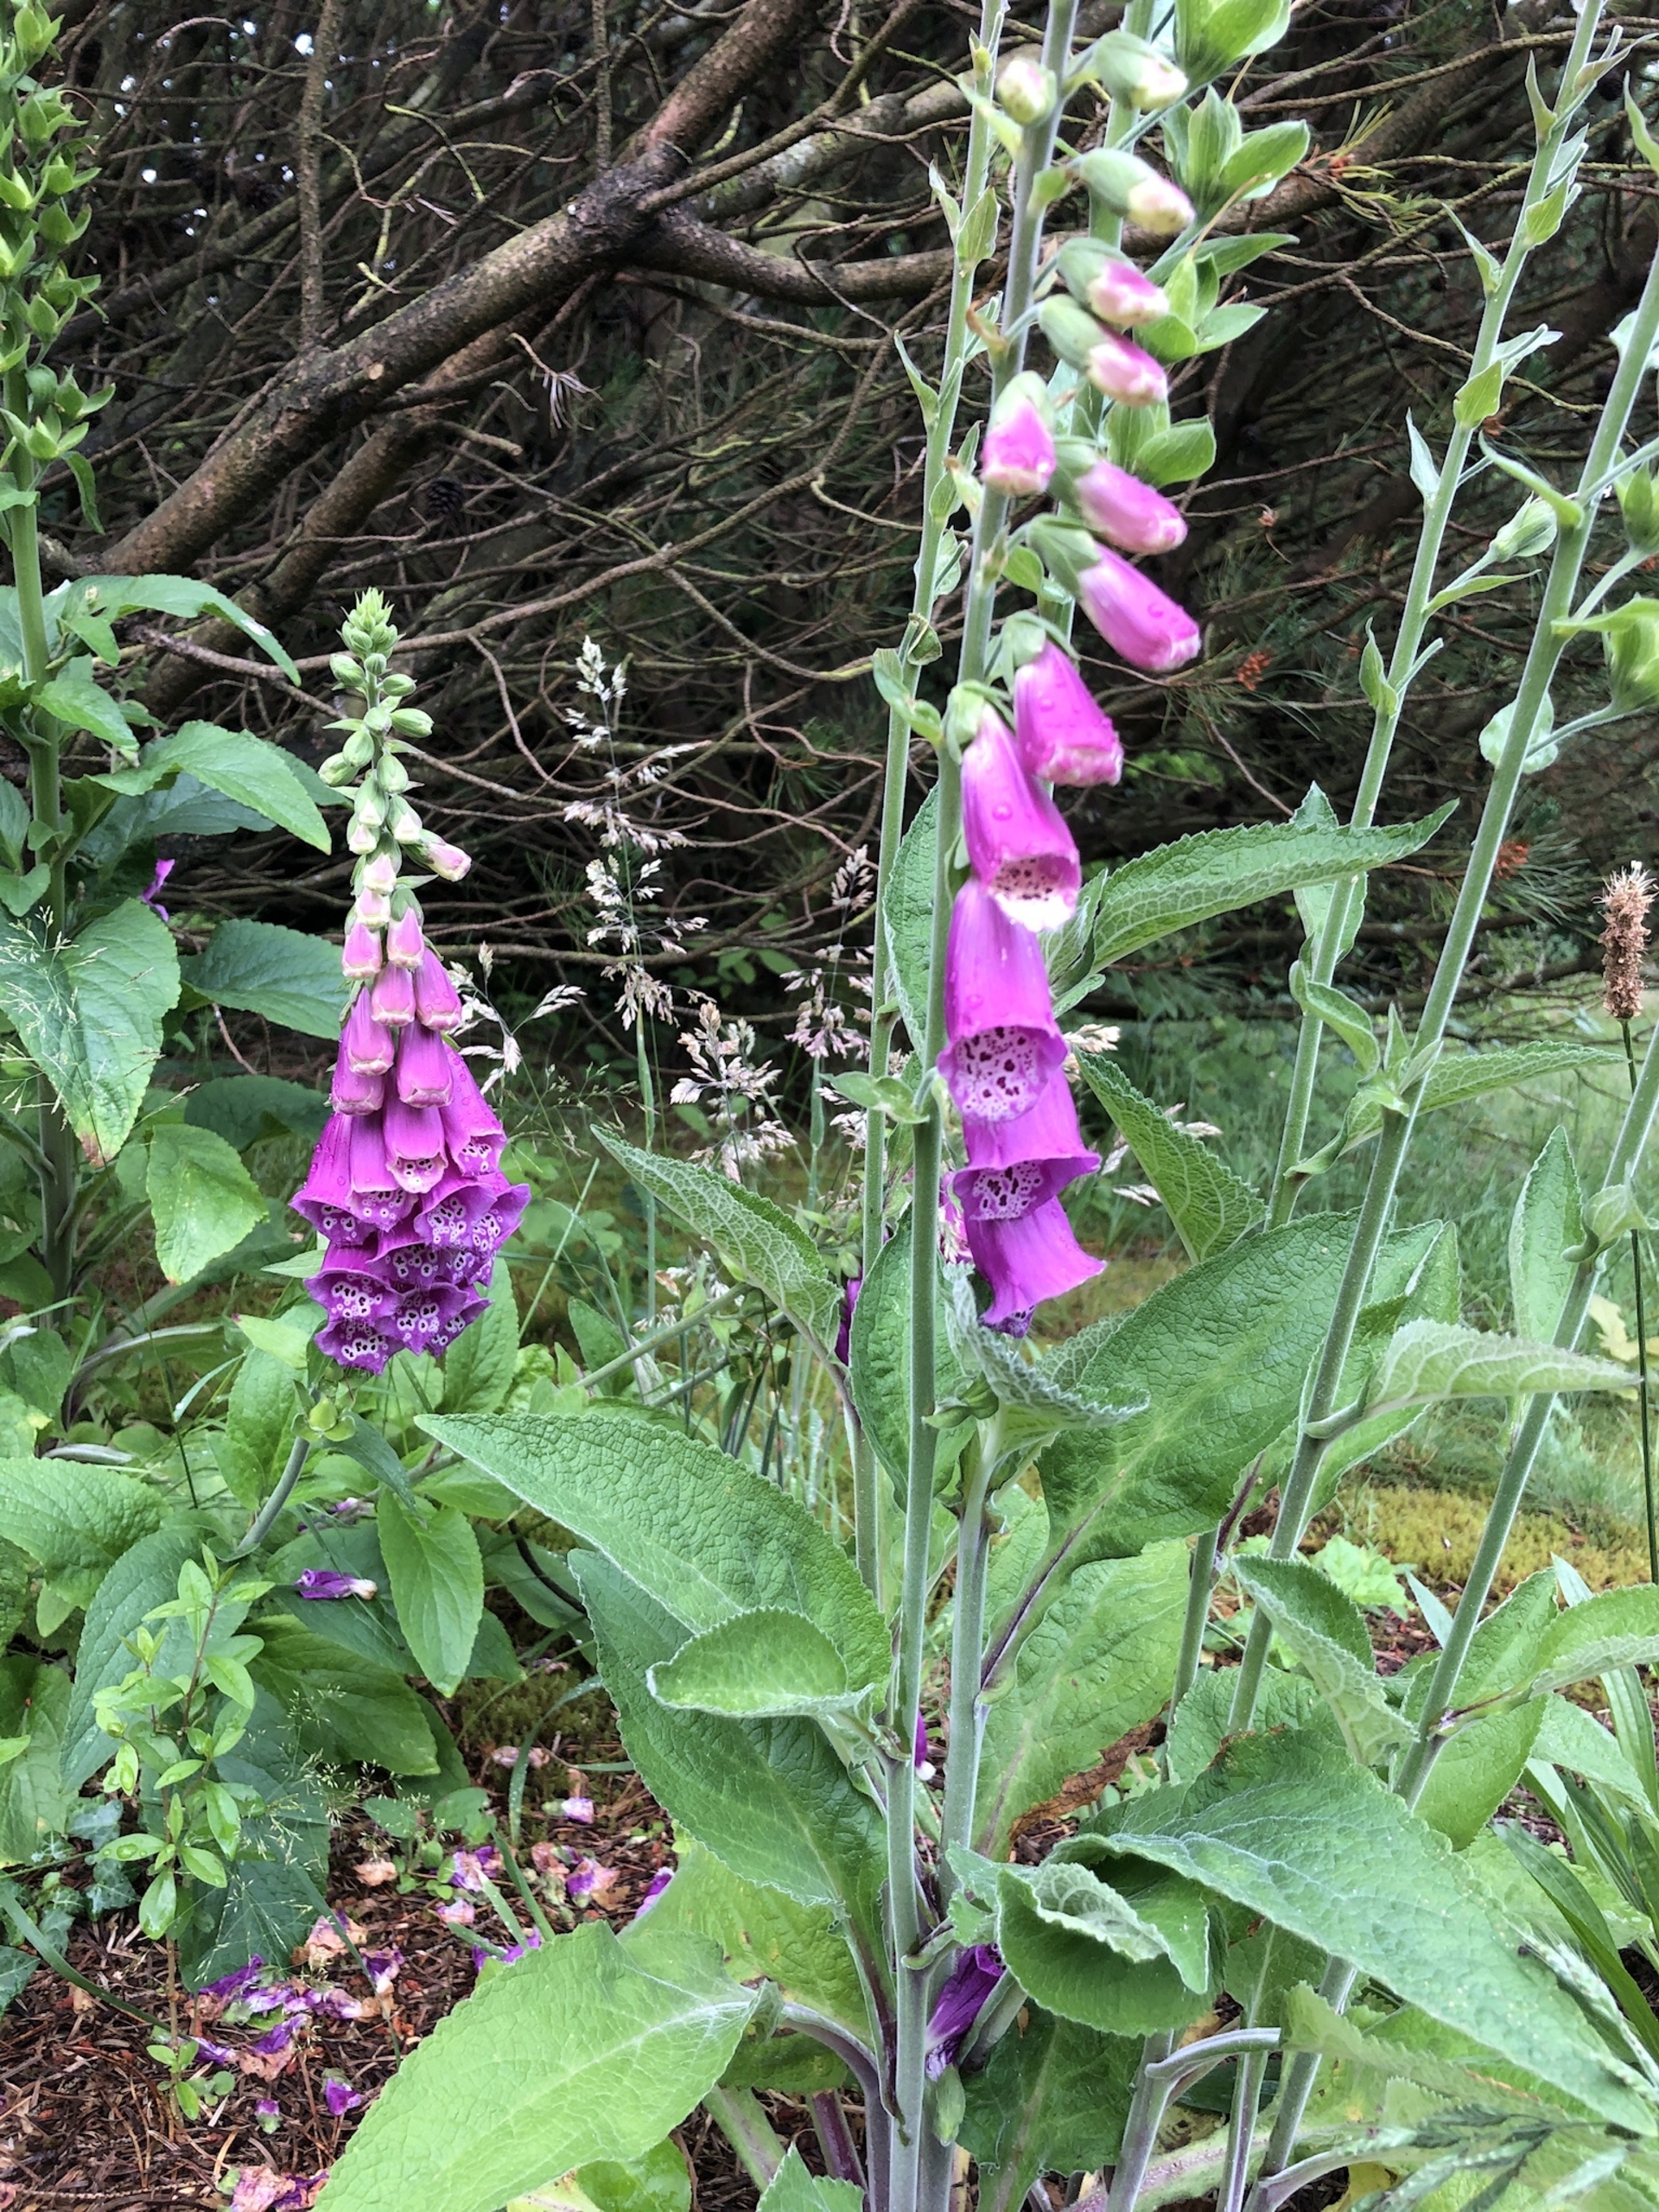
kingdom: Plantae
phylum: Tracheophyta
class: Magnoliopsida
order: Lamiales
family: Plantaginaceae
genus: Digitalis
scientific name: Digitalis purpurea
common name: Almindelig fingerbøl
